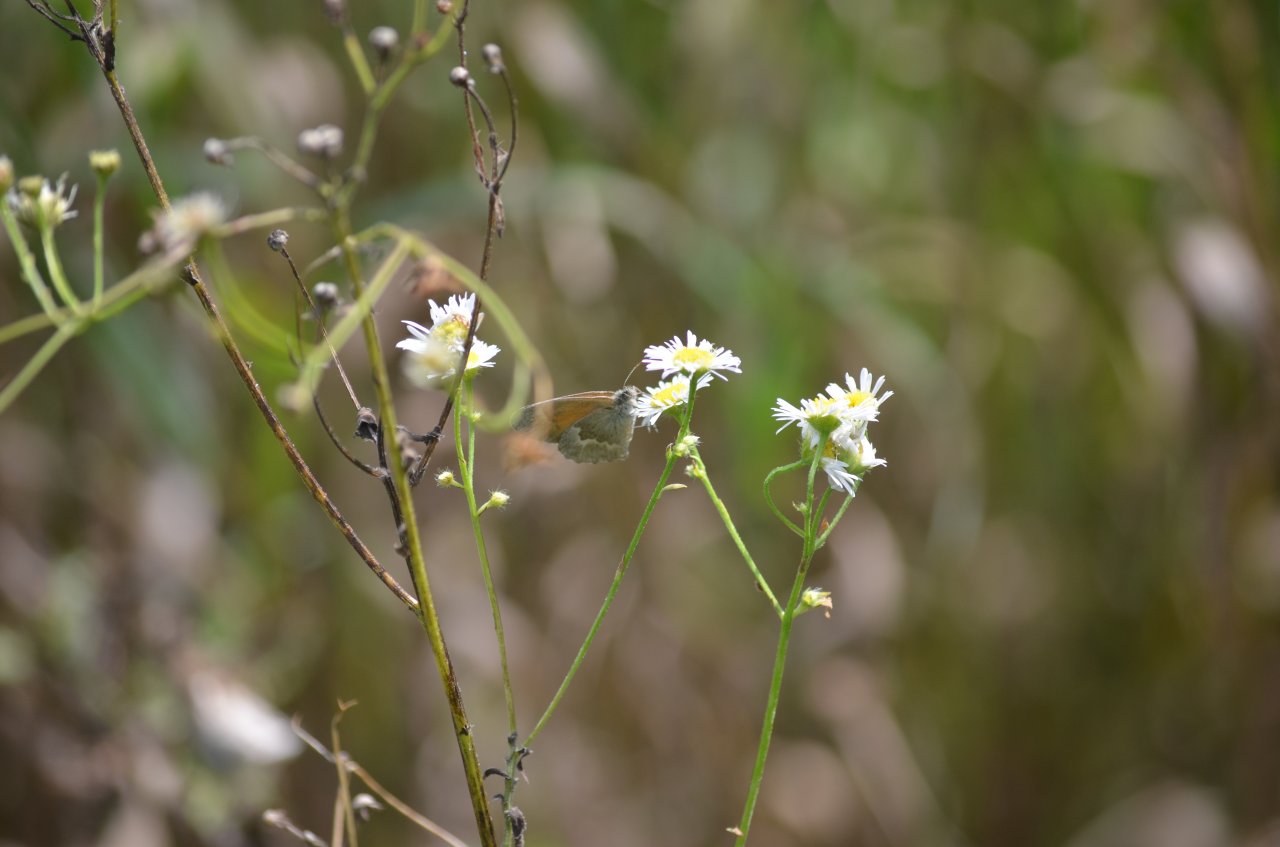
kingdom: Animalia
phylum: Arthropoda
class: Insecta
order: Lepidoptera
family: Nymphalidae
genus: Coenonympha
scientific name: Coenonympha tullia
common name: Large Heath
